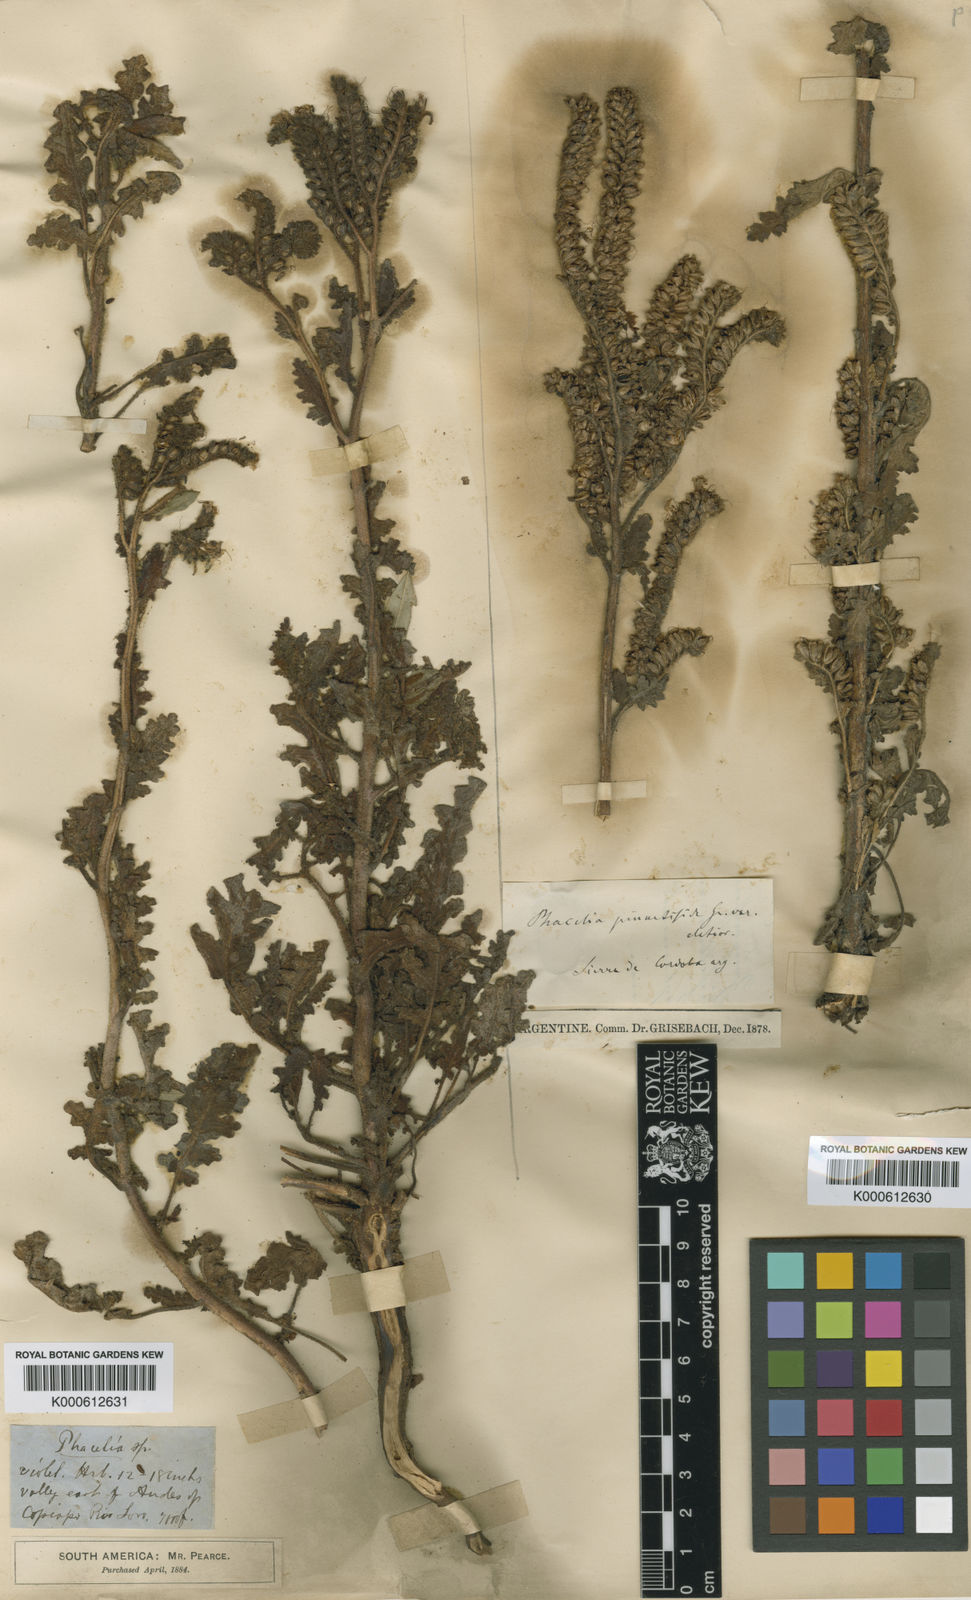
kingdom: Plantae
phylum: Tracheophyta
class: Magnoliopsida
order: Boraginales
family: Hydrophyllaceae
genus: Phacelia
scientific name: Phacelia pinnatifida
